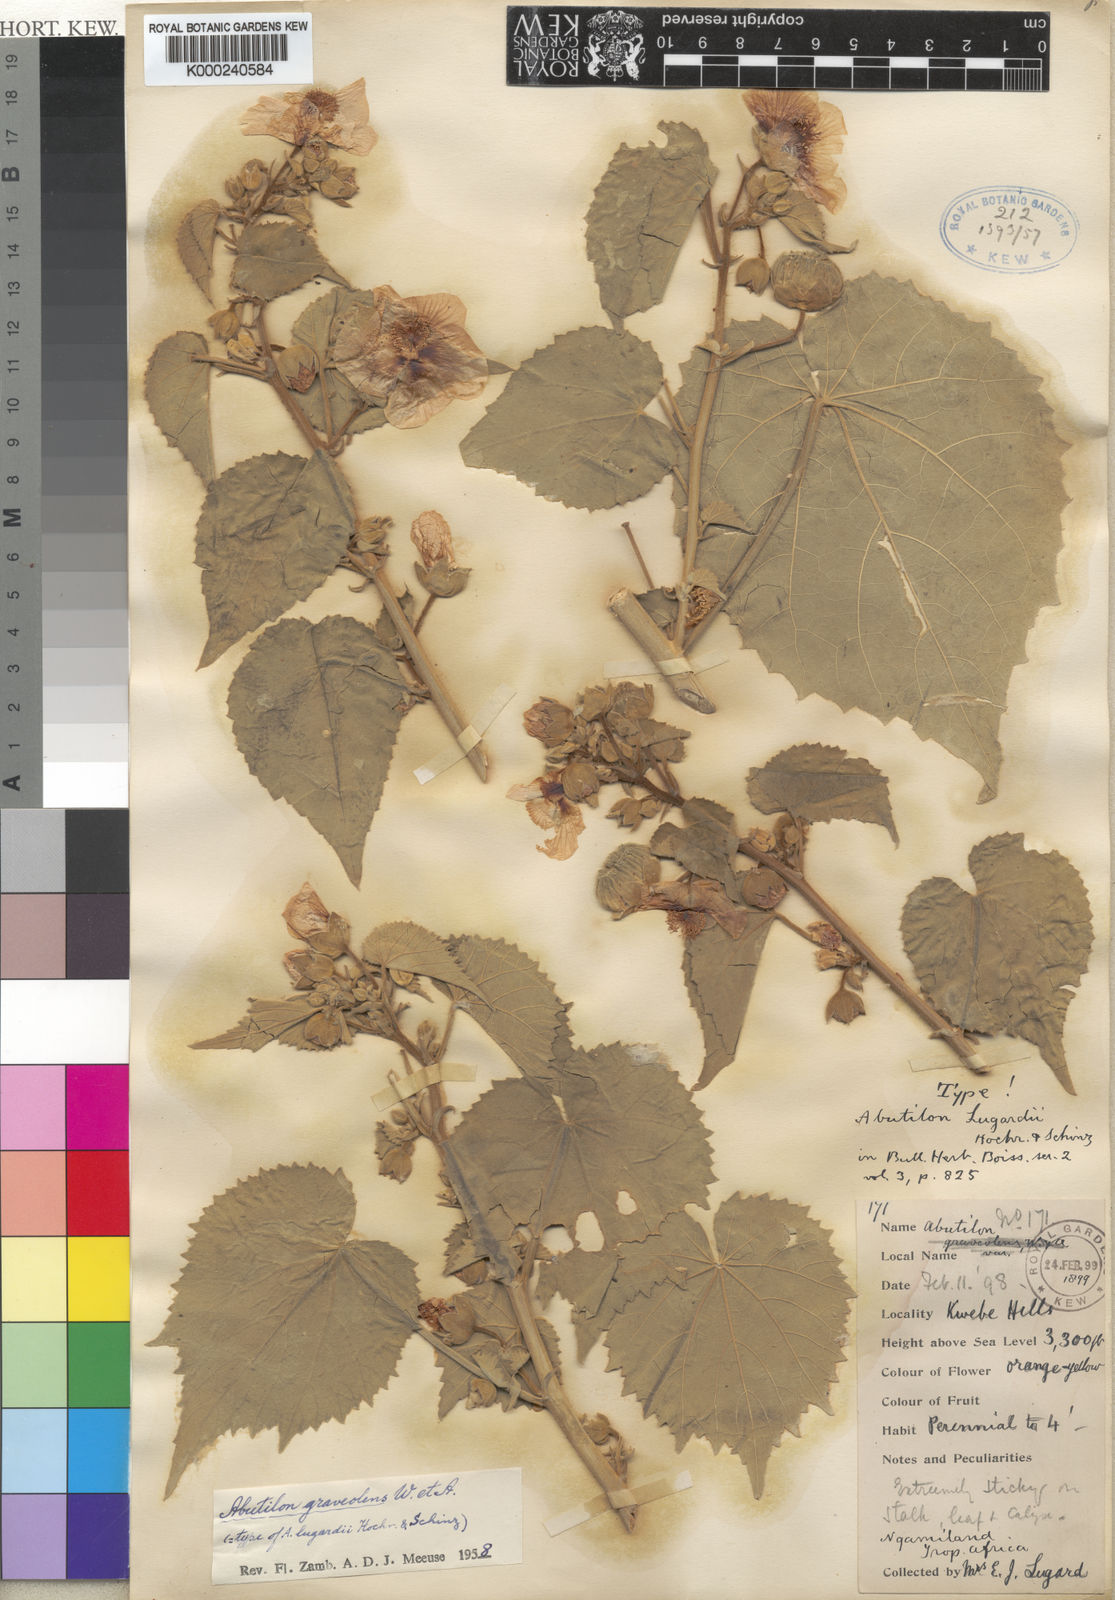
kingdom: Plantae
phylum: Tracheophyta
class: Magnoliopsida
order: Malvales
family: Malvaceae
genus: Abutilon
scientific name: Abutilon hirtum
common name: Florida keys indian mallow
